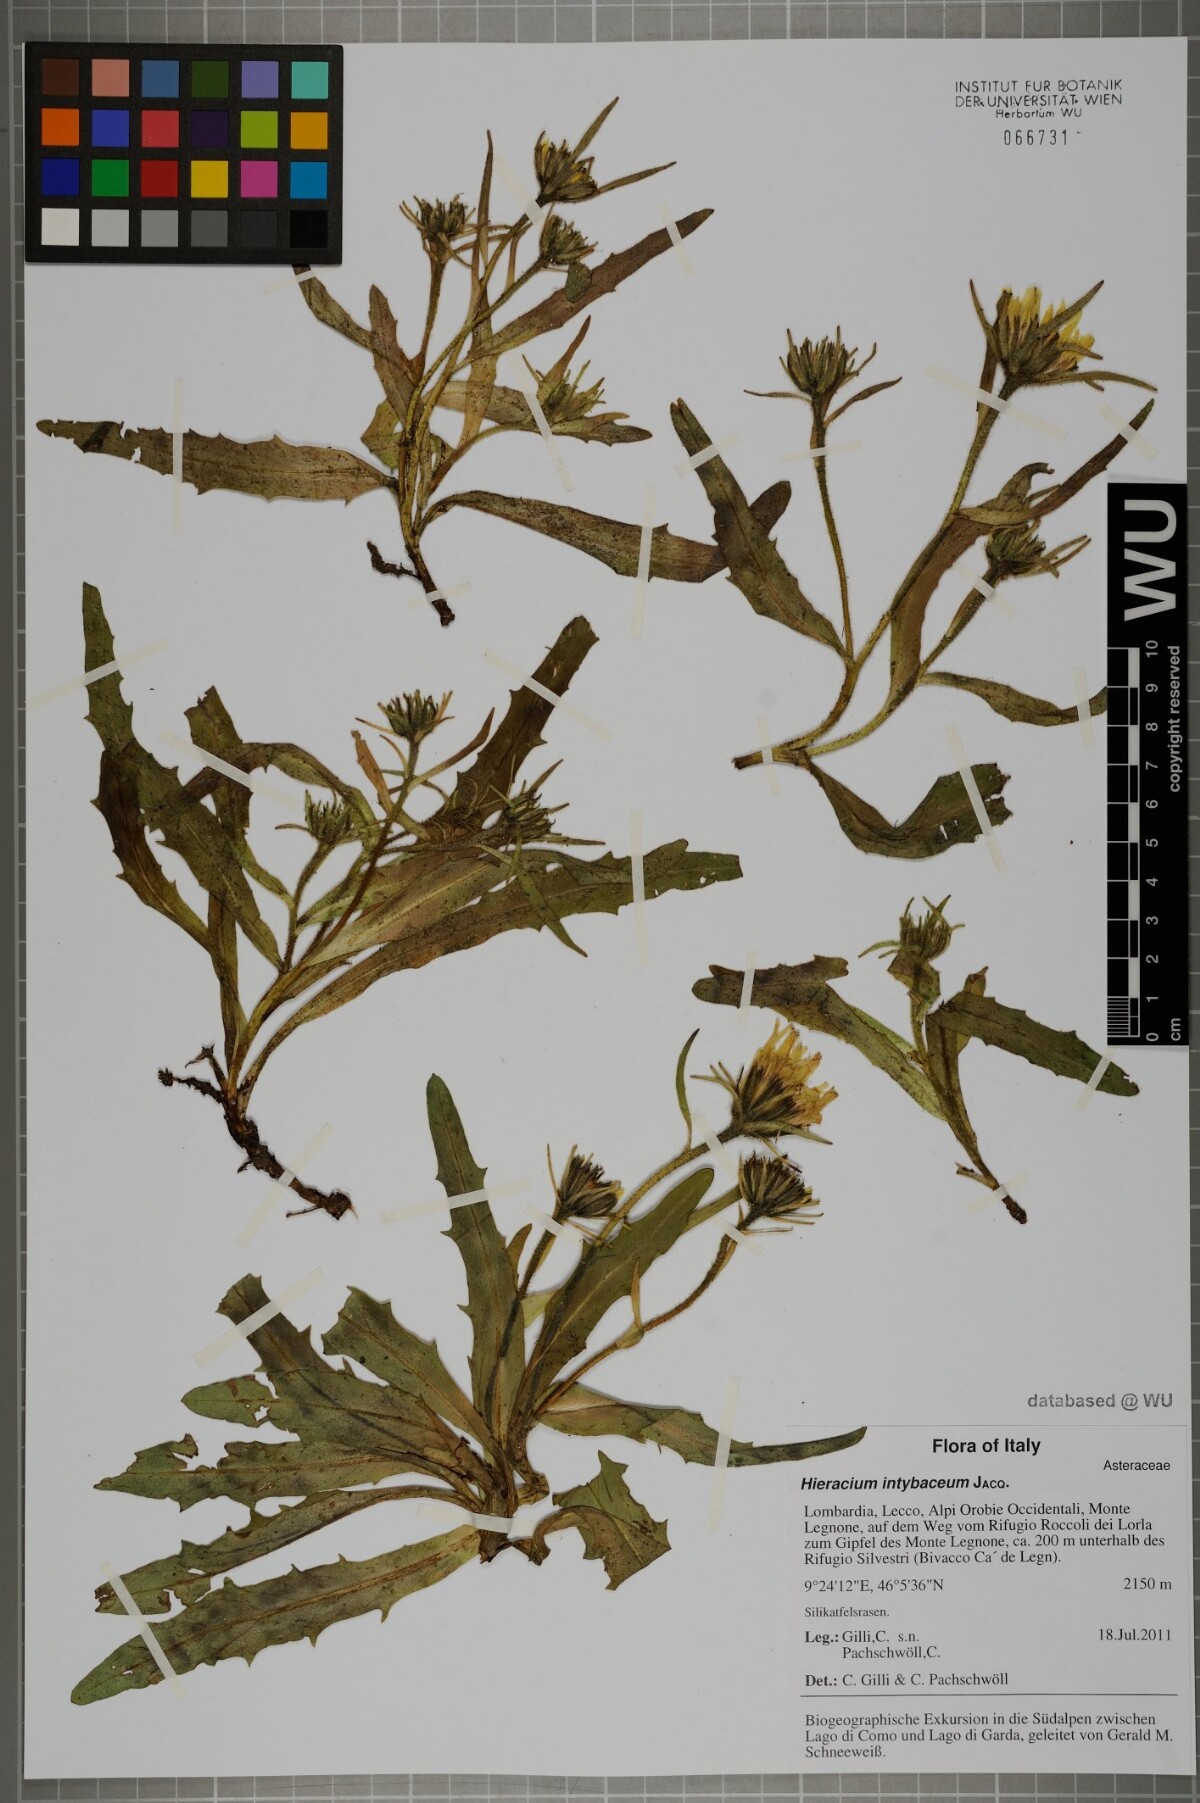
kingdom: Plantae
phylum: Tracheophyta
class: Magnoliopsida
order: Asterales
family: Asteraceae
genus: Schlagintweitia
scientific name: Schlagintweitia intybacea
